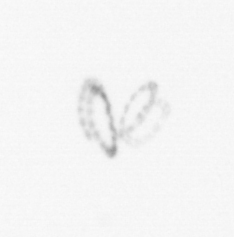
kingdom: Chromista
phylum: Ochrophyta
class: Bacillariophyceae
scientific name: Bacillariophyceae
